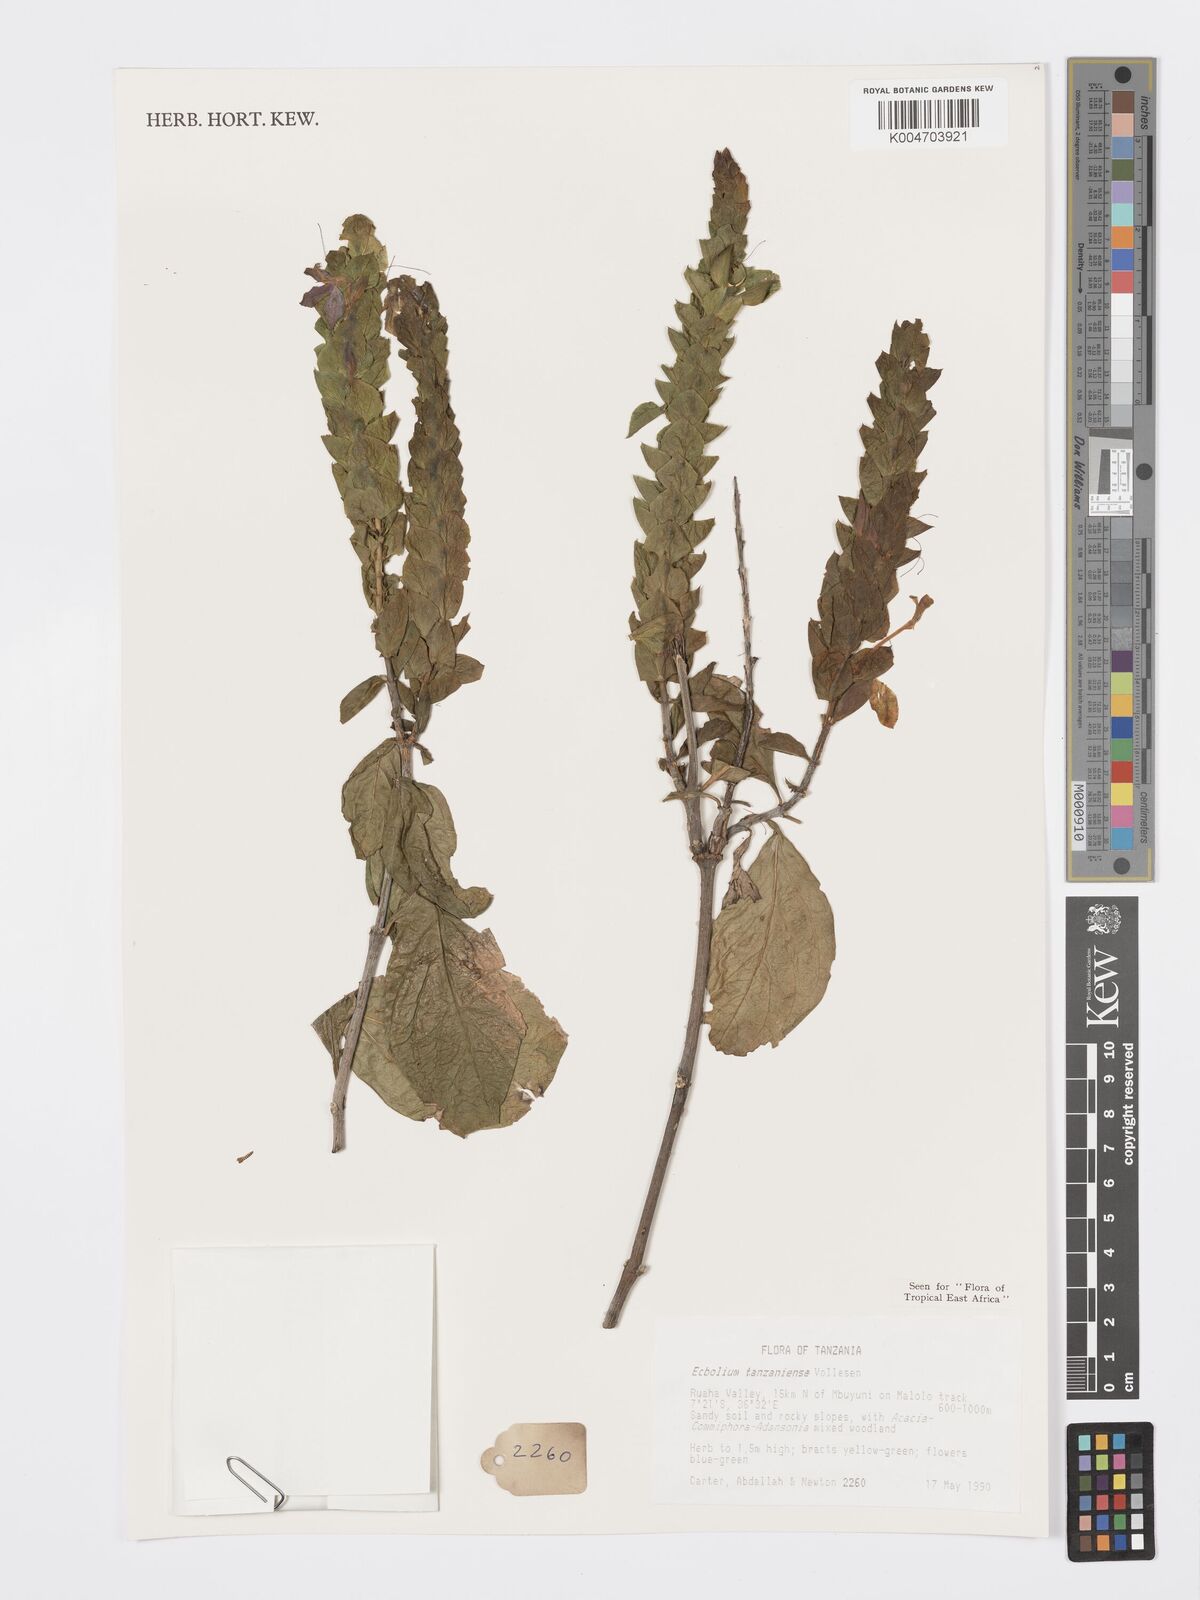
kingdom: Plantae
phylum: Tracheophyta
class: Magnoliopsida
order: Lamiales
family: Acanthaceae
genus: Ecbolium
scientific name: Ecbolium tanzaniense
